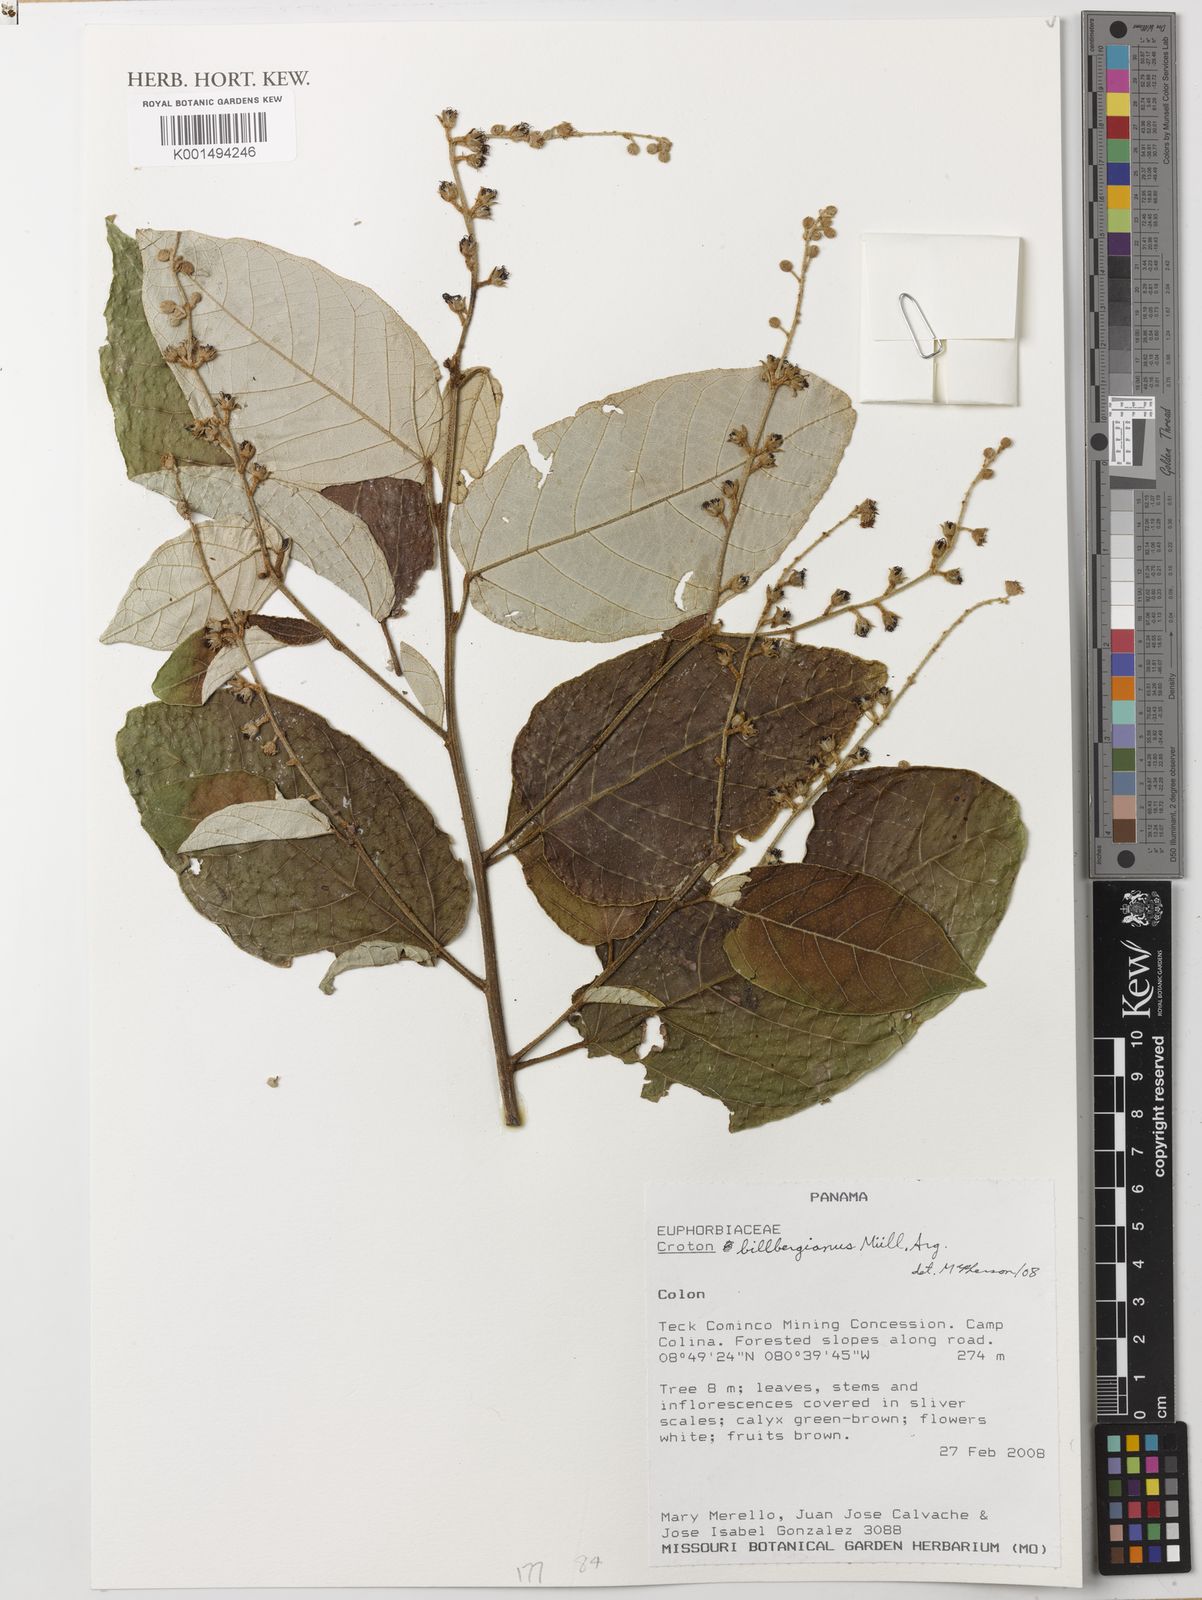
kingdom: Plantae
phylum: Tracheophyta
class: Magnoliopsida
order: Malpighiales
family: Euphorbiaceae
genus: Croton
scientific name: Croton billbergianus
